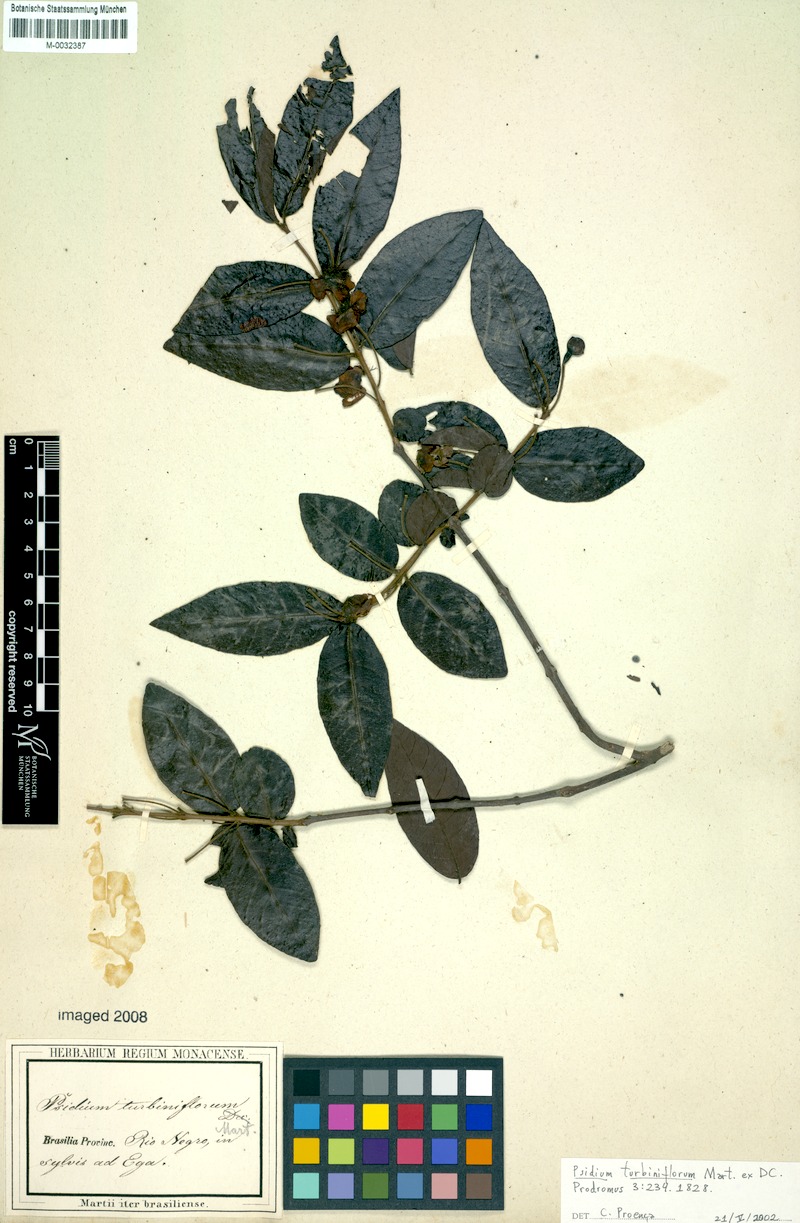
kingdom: Plantae
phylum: Tracheophyta
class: Magnoliopsida
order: Myrtales
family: Myrtaceae
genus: Psidium
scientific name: Psidium striatulum
